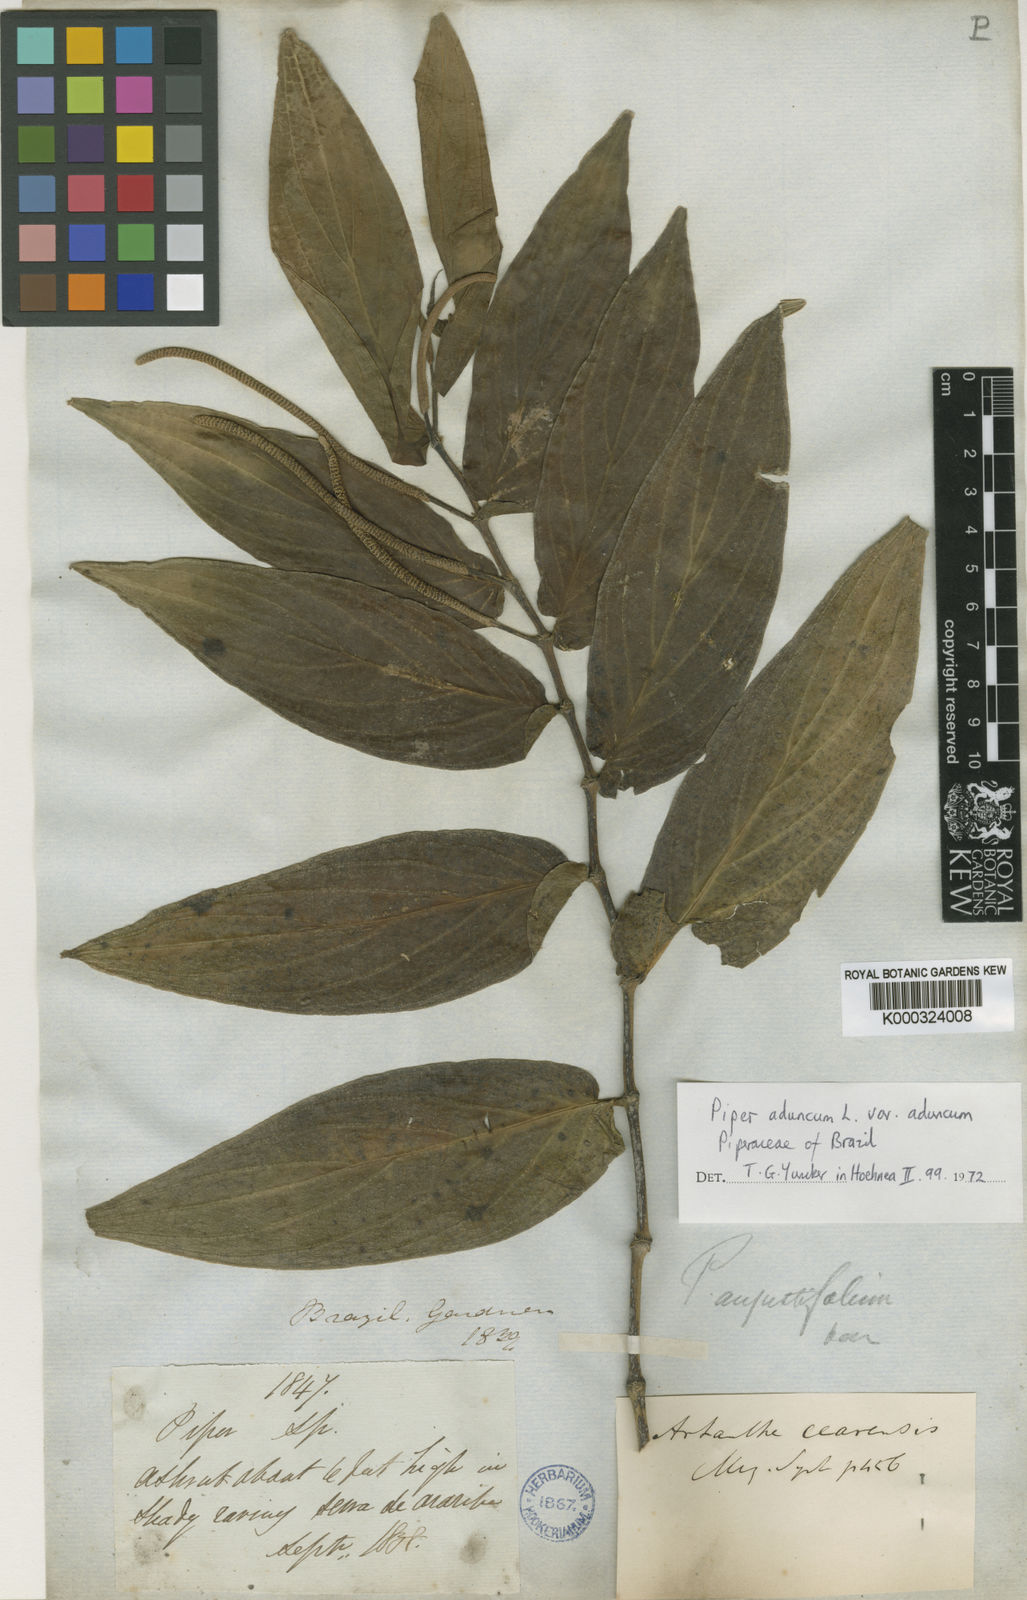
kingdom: Plantae
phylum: Tracheophyta
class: Magnoliopsida
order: Piperales
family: Piperaceae
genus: Piper
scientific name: Piper aduncum
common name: Spiked pepper
